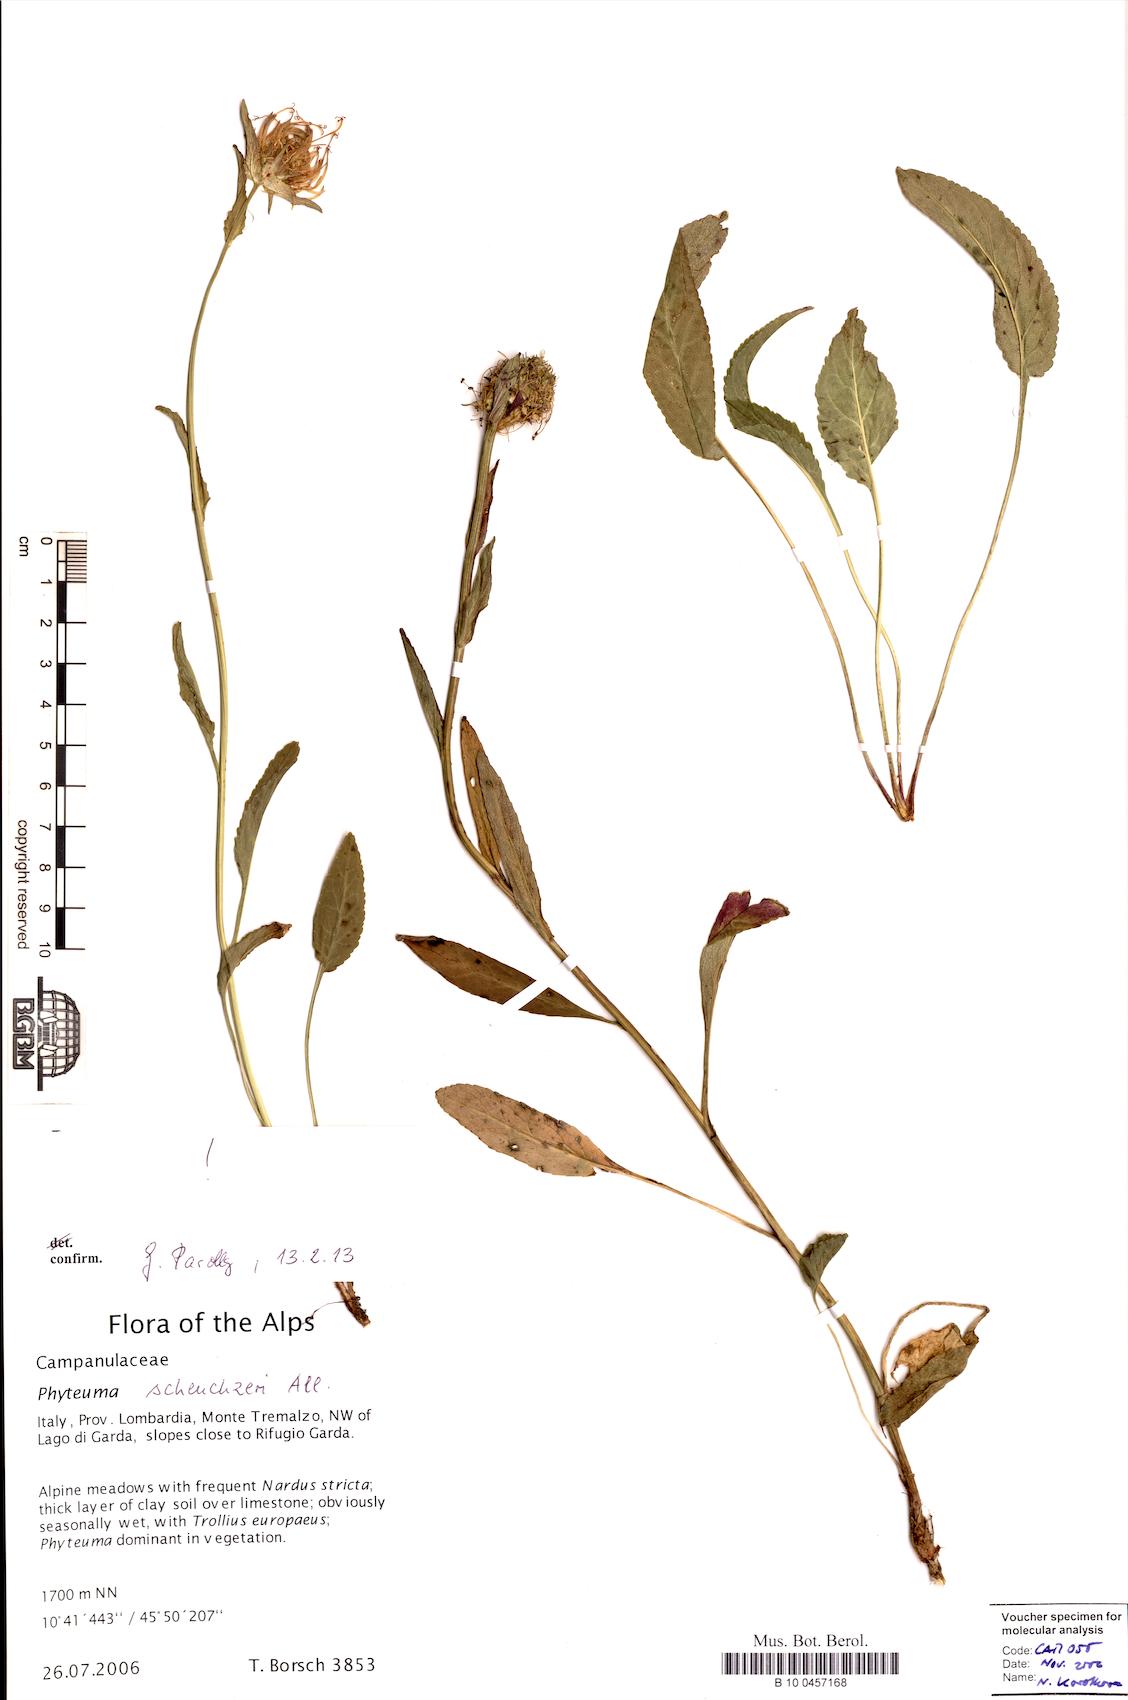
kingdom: Plantae
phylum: Tracheophyta
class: Magnoliopsida
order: Asterales
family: Campanulaceae
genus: Phyteuma
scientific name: Phyteuma scheuchzeri
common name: Oxford rampion
